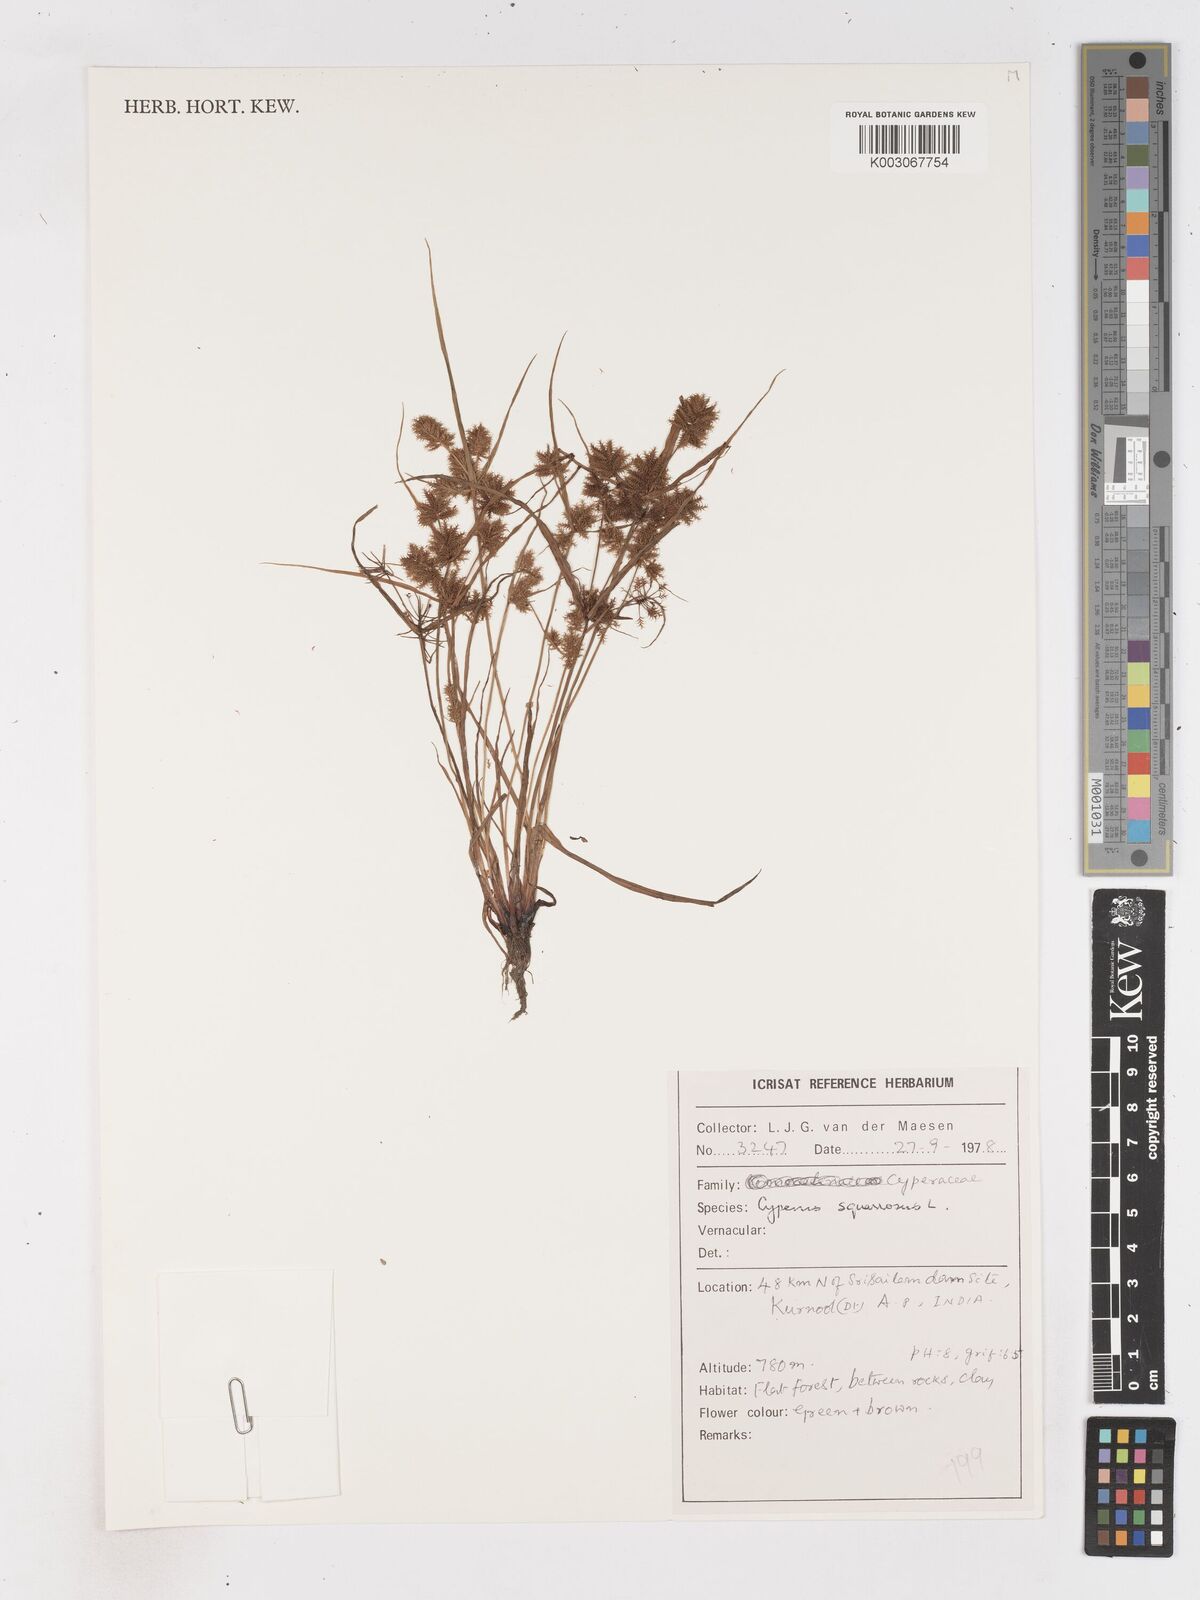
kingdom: Plantae
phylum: Tracheophyta
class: Liliopsida
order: Poales
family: Cyperaceae
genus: Cyperus
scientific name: Cyperus squarrosus
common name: Awned cyperus
